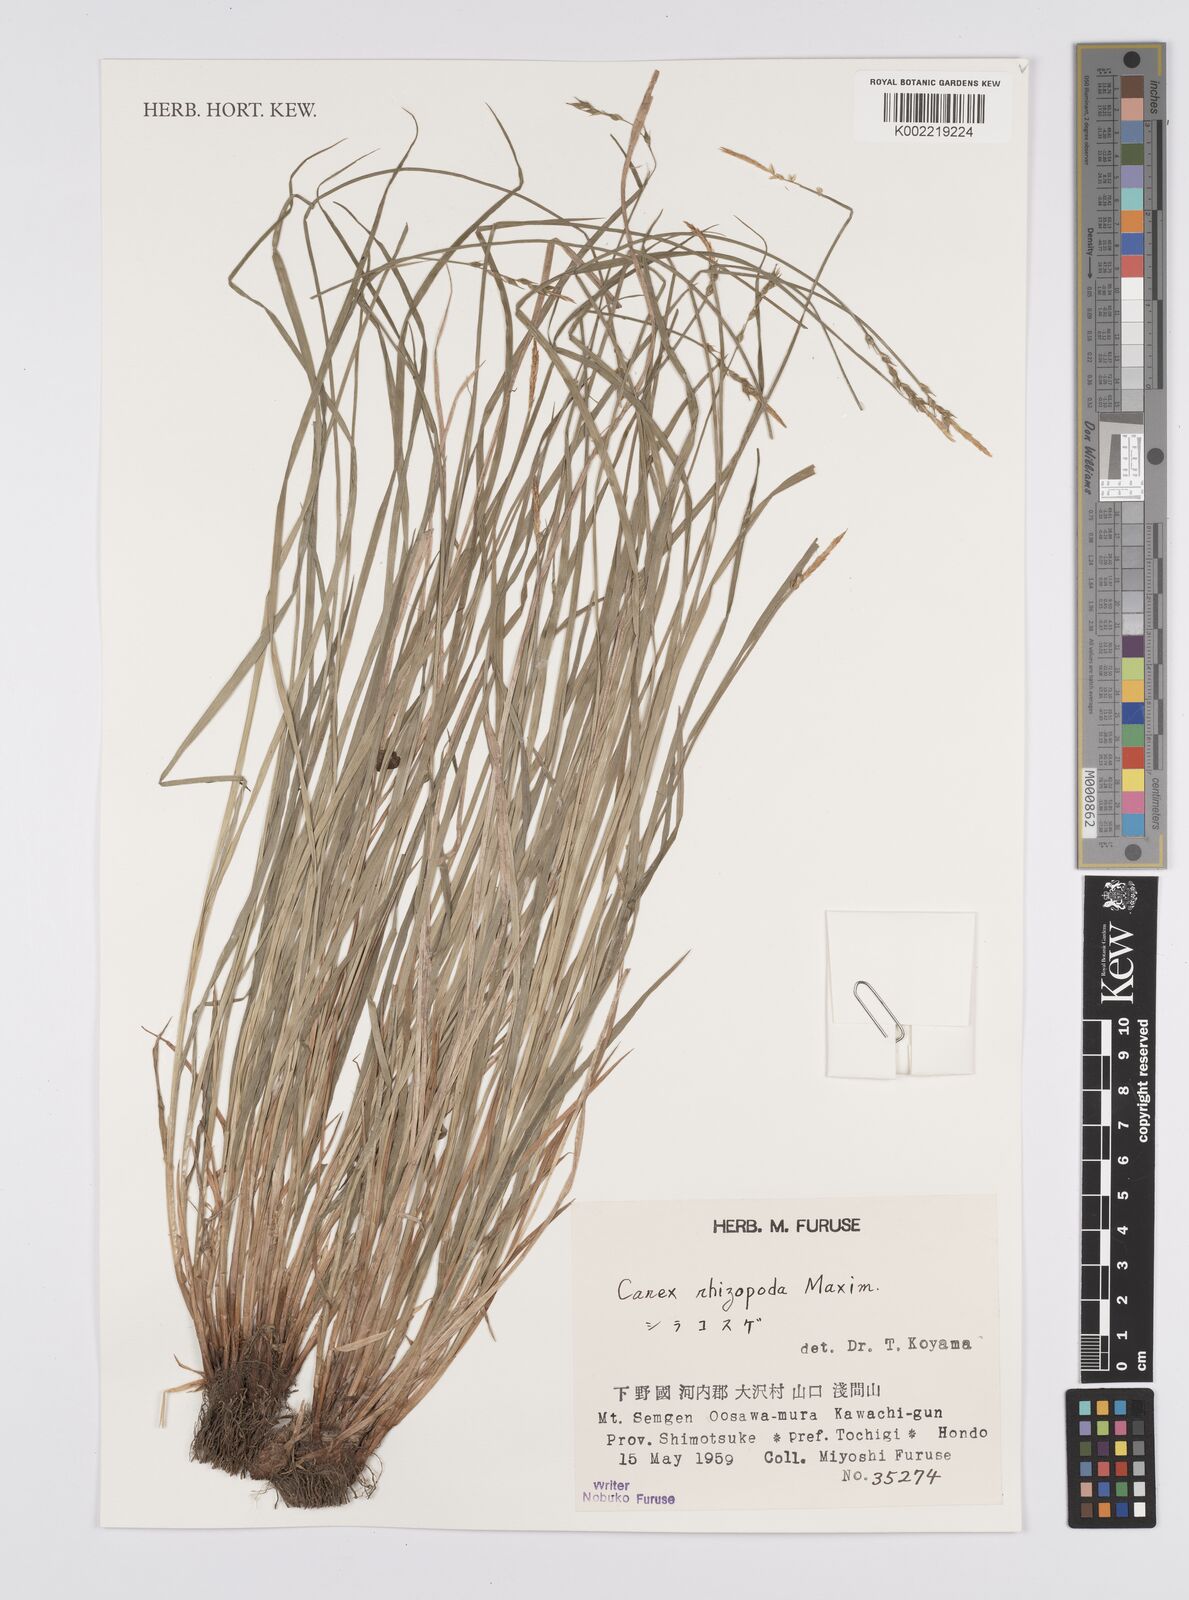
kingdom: Plantae
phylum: Tracheophyta
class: Liliopsida
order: Poales
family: Cyperaceae
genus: Carex
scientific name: Carex rhizopoda
